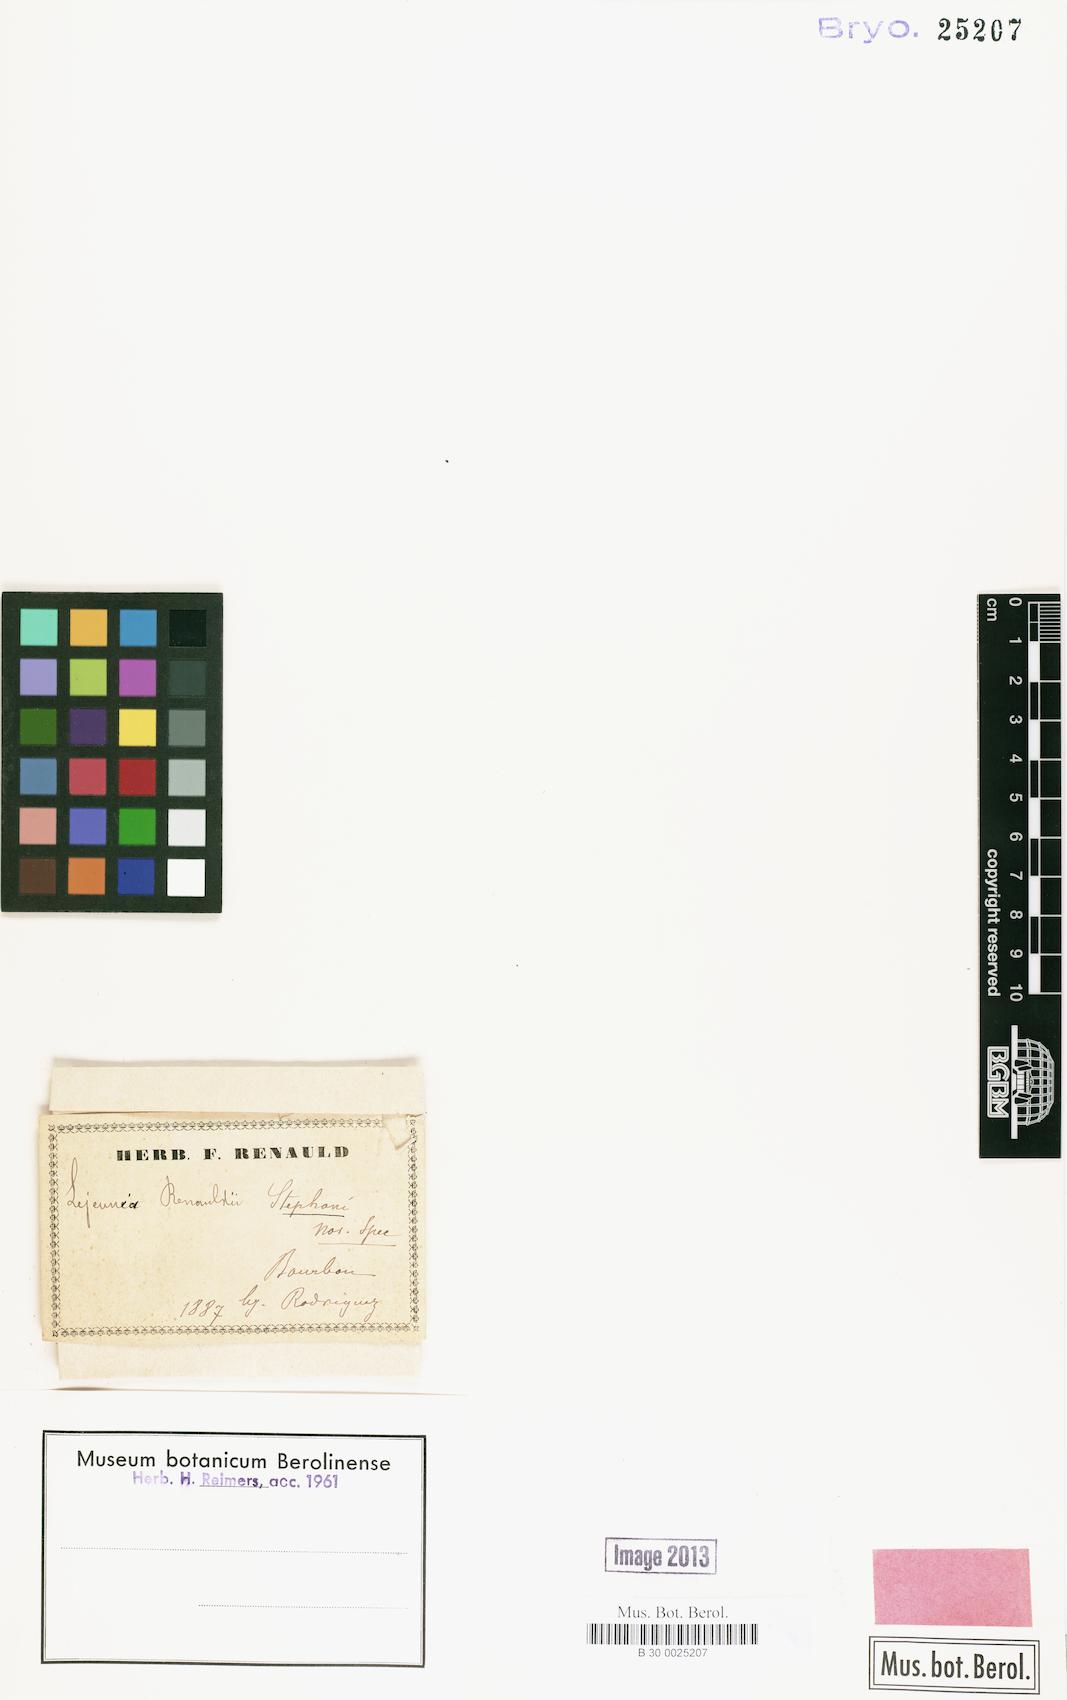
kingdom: Plantae
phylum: Marchantiophyta
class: Jungermanniopsida
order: Porellales
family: Lejeuneaceae
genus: Lejeunea
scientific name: Lejeunea alata
